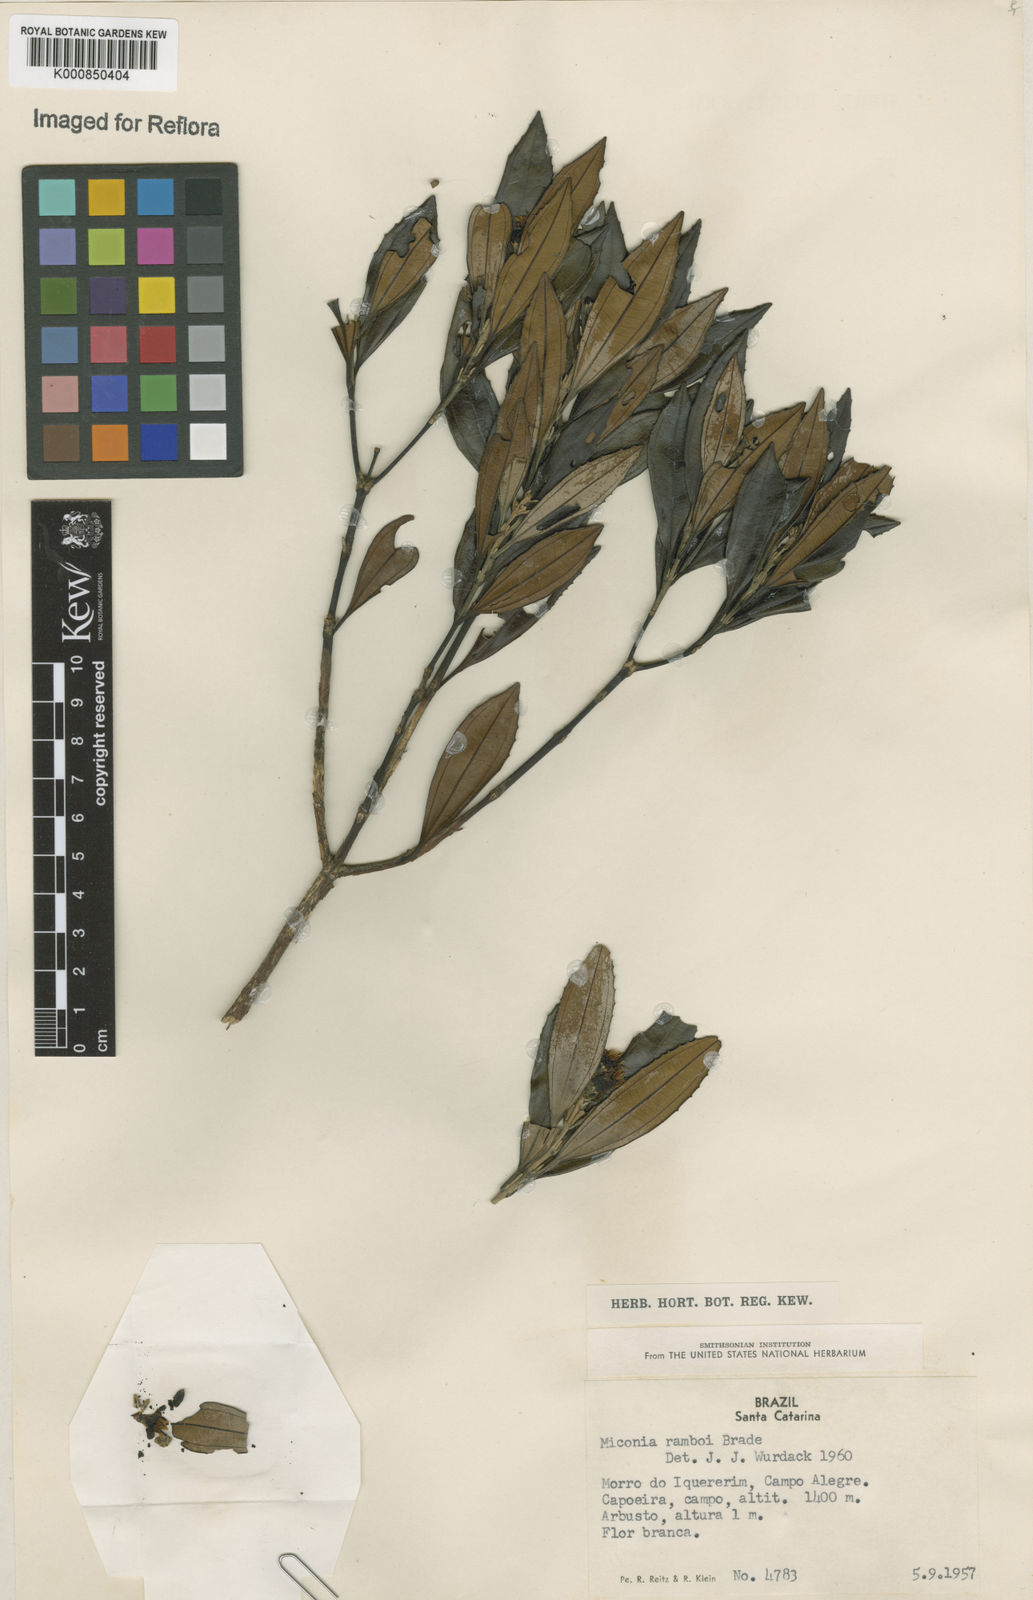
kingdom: Plantae
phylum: Tracheophyta
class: Magnoliopsida
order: Myrtales
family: Melastomataceae
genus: Miconia
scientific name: Miconia ramboi
